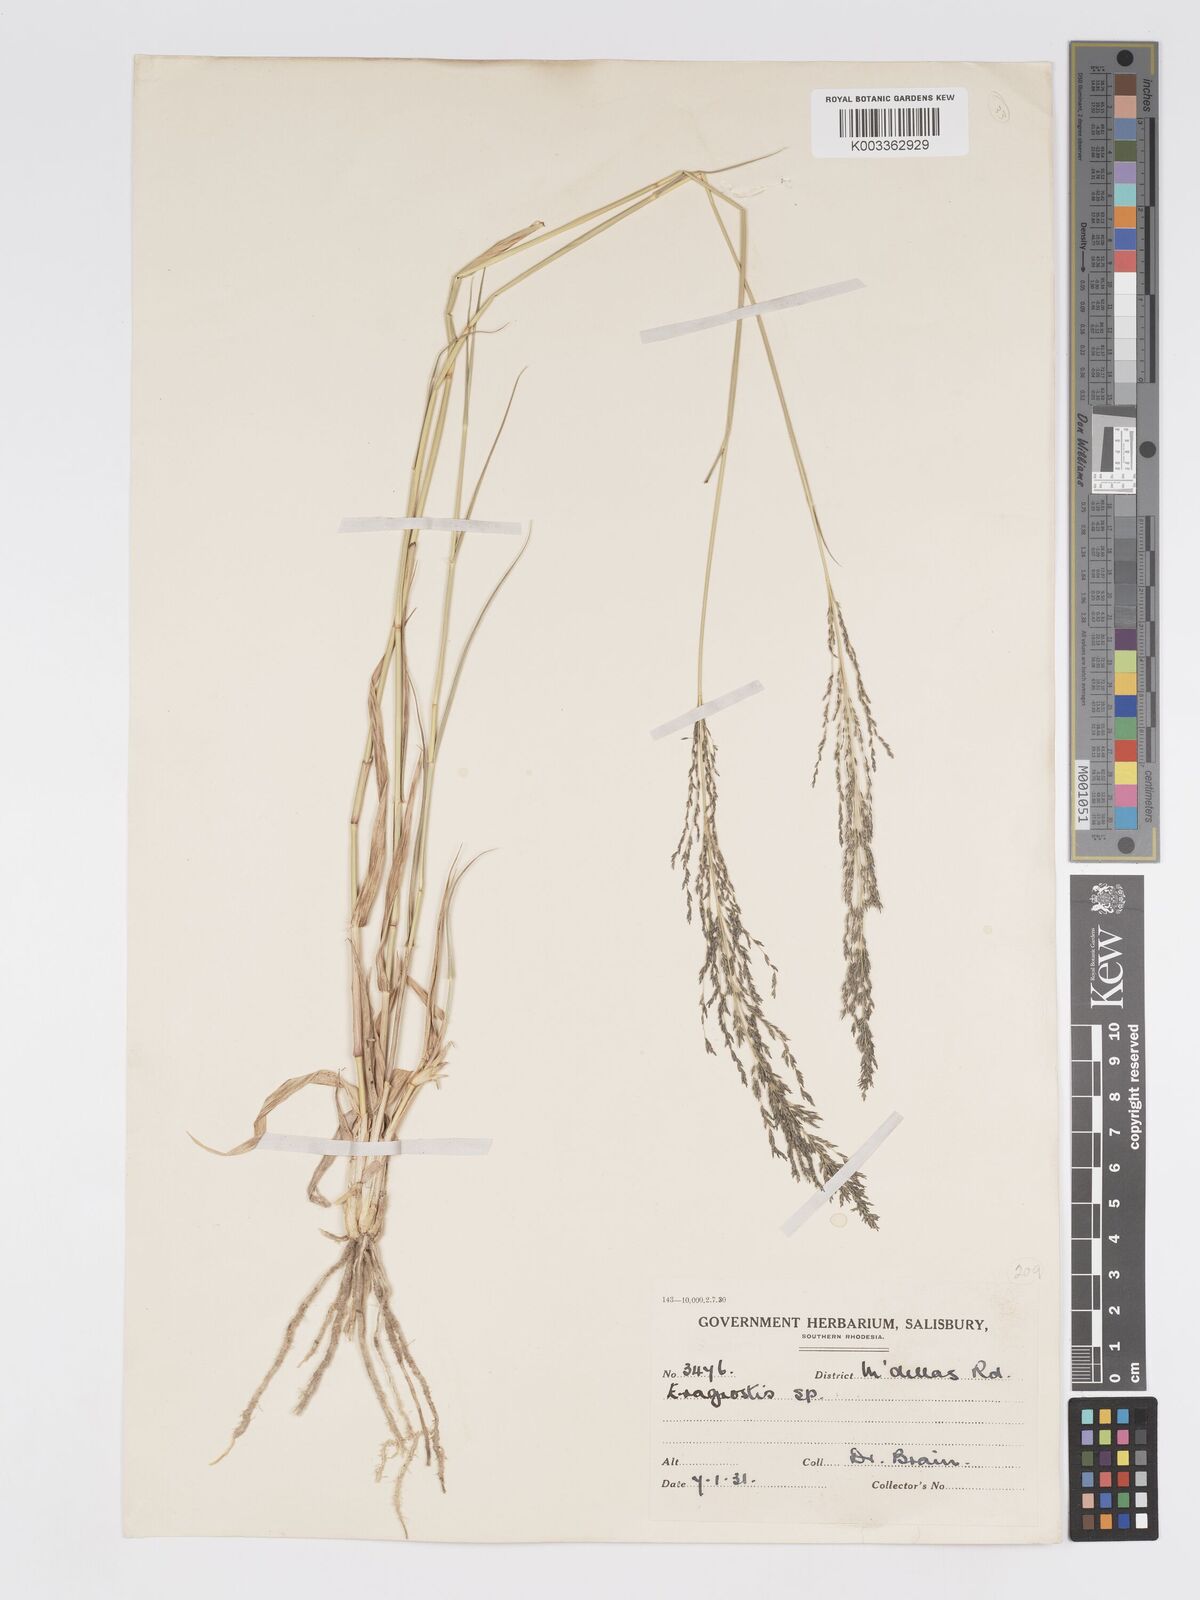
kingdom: Plantae
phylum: Tracheophyta
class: Liliopsida
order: Poales
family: Poaceae
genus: Eragrostis
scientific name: Eragrostis cylindriflora
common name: Cylinderflower lovegrass
